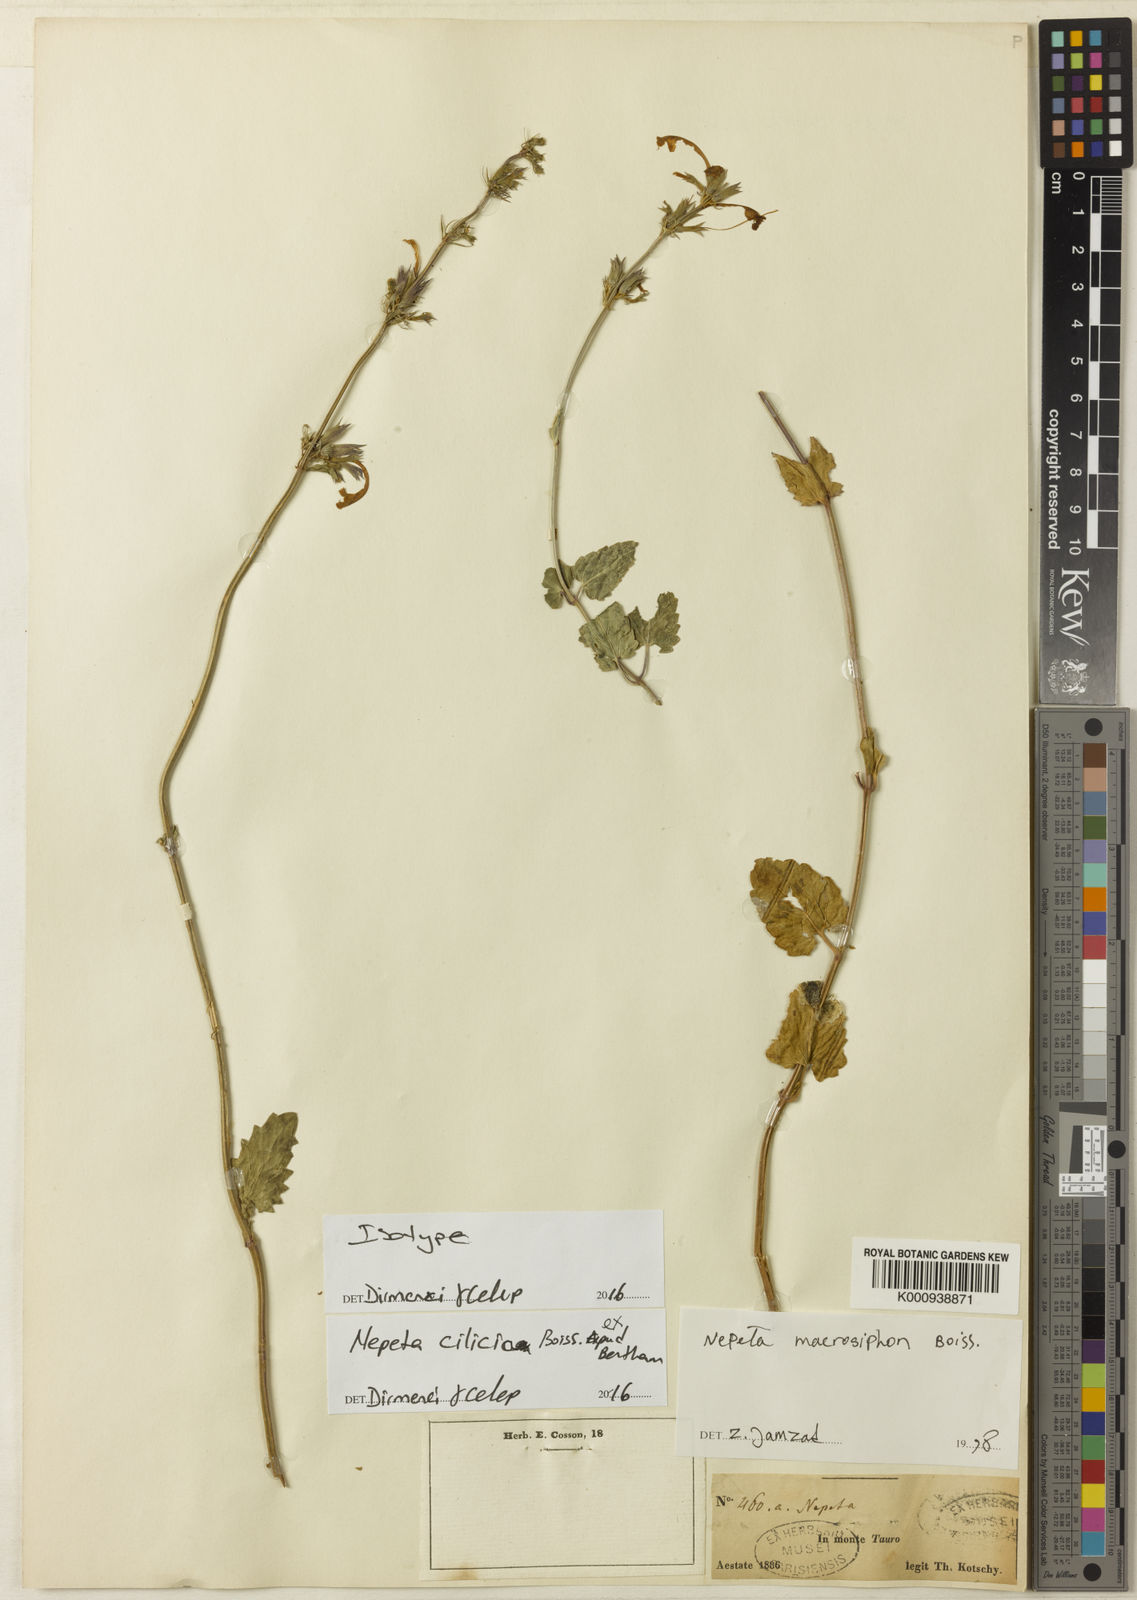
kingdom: Plantae
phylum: Tracheophyta
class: Magnoliopsida
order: Lamiales
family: Lamiaceae
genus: Nepeta
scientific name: Nepeta
